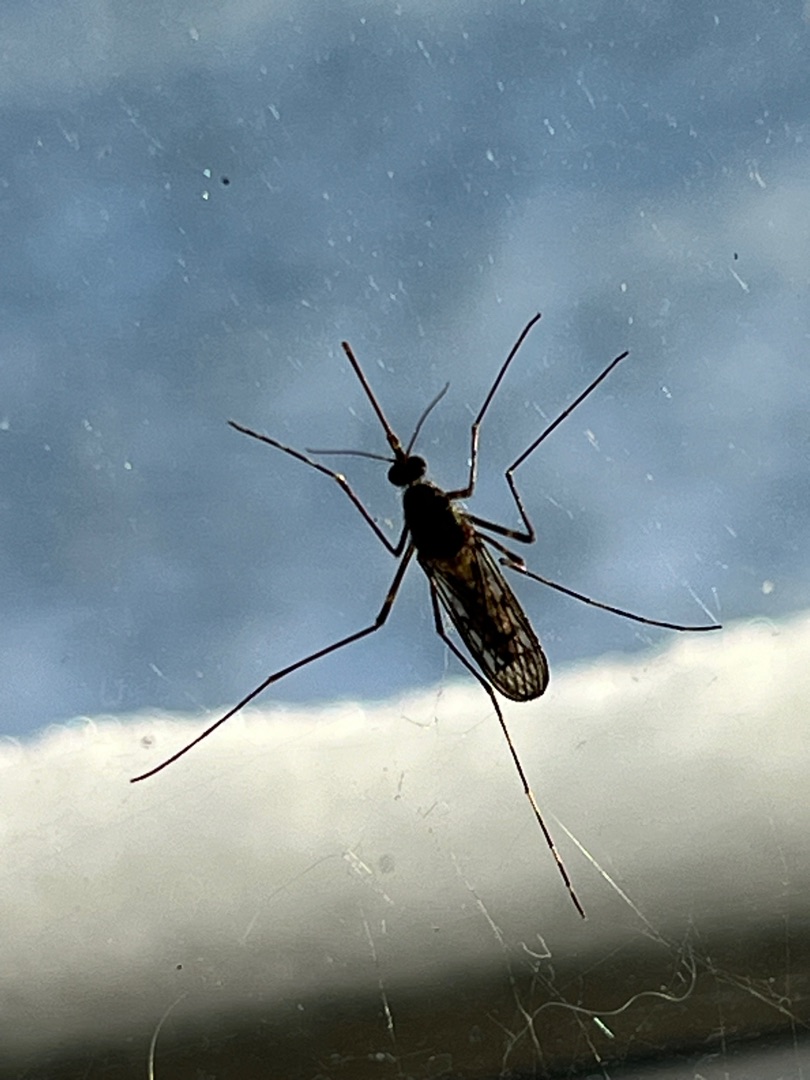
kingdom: Animalia
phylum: Arthropoda
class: Insecta
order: Diptera
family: Culicidae
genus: Culiseta
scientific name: Culiseta annulata
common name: Stor kældermyg
